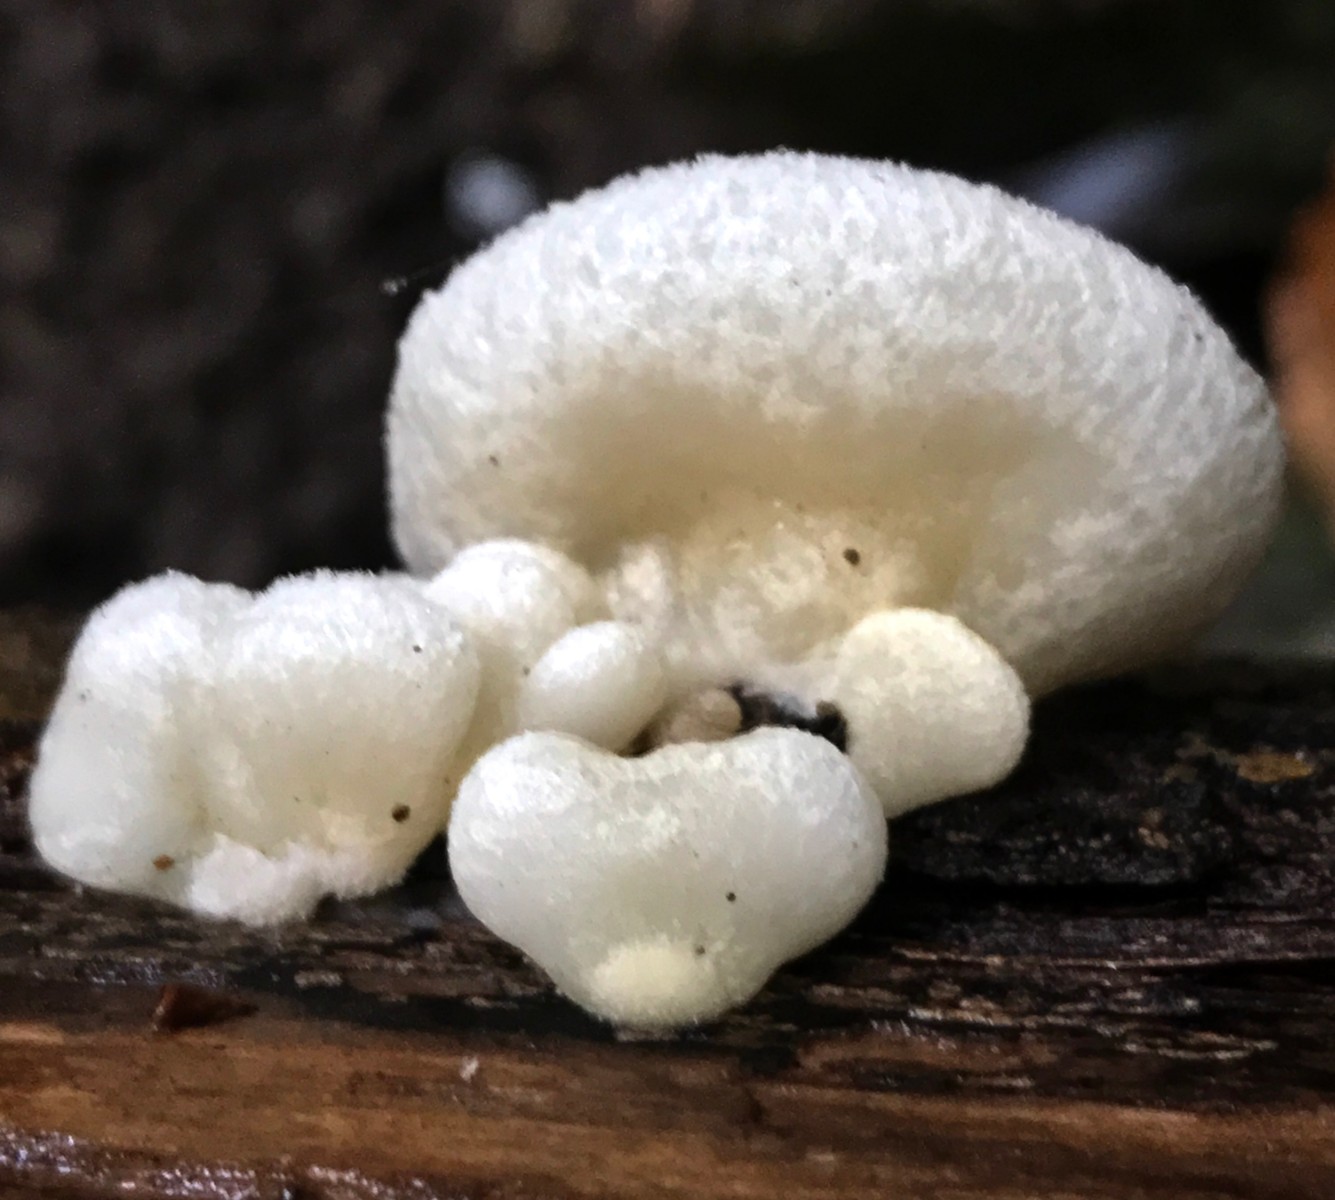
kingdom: Fungi
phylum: Basidiomycota
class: Agaricomycetes
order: Agaricales
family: Crepidotaceae
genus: Crepidotus
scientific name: Crepidotus mollis
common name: blød muslingesvamp
